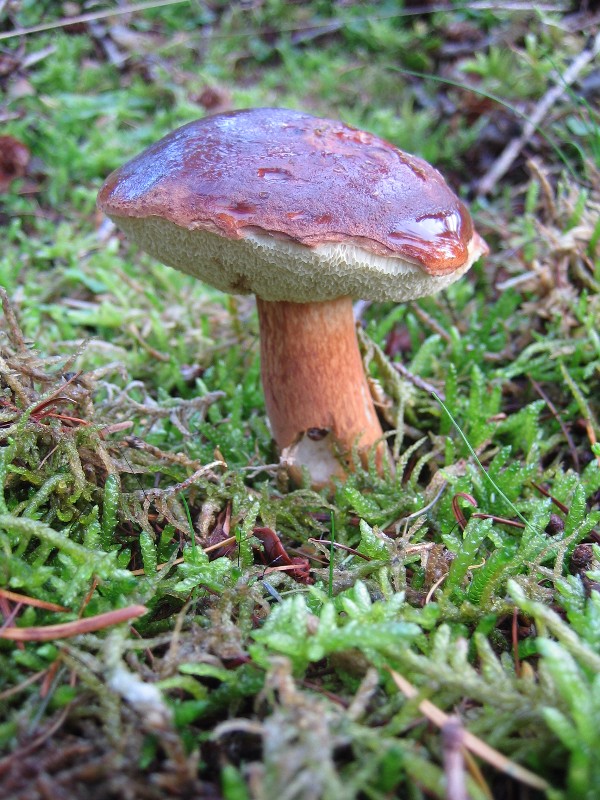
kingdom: Fungi
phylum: Basidiomycota
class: Agaricomycetes
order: Boletales
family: Boletaceae
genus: Imleria
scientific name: Imleria badia
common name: brunstokket rørhat
